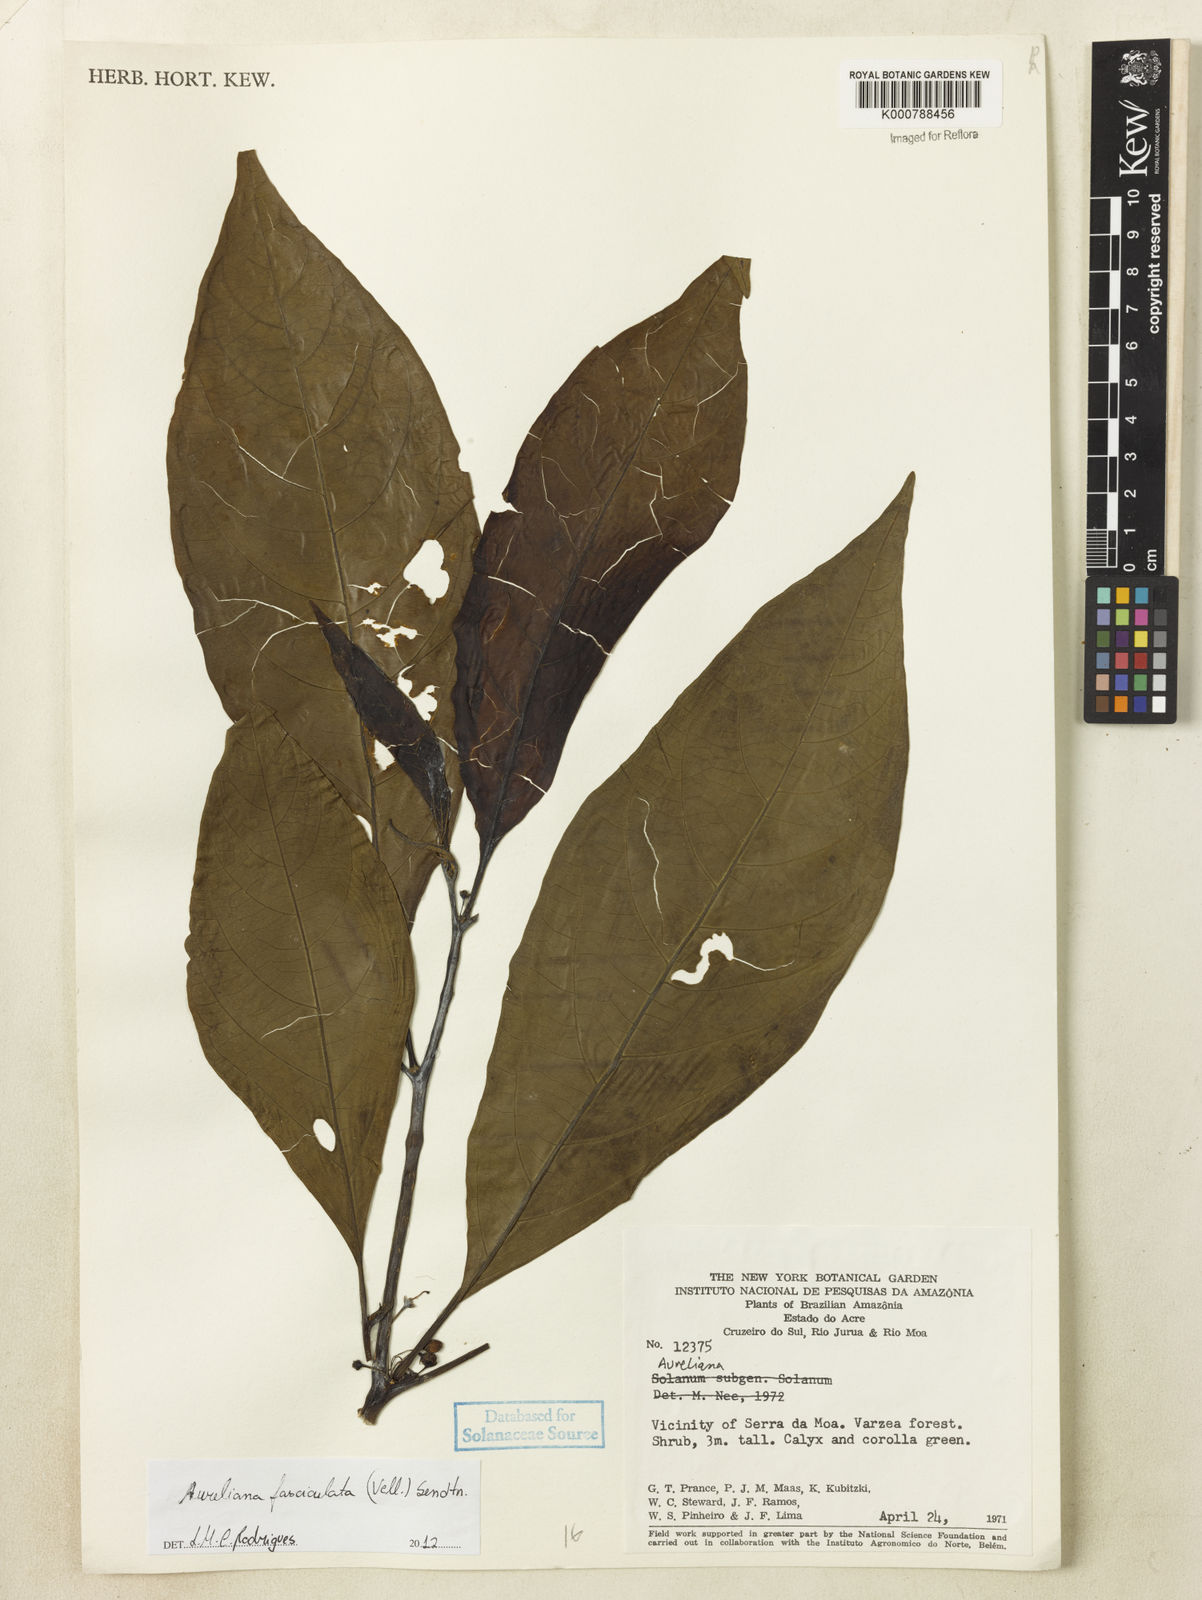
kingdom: Plantae
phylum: Tracheophyta
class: Magnoliopsida
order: Solanales
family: Solanaceae
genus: Athenaea
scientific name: Athenaea fasciculata
